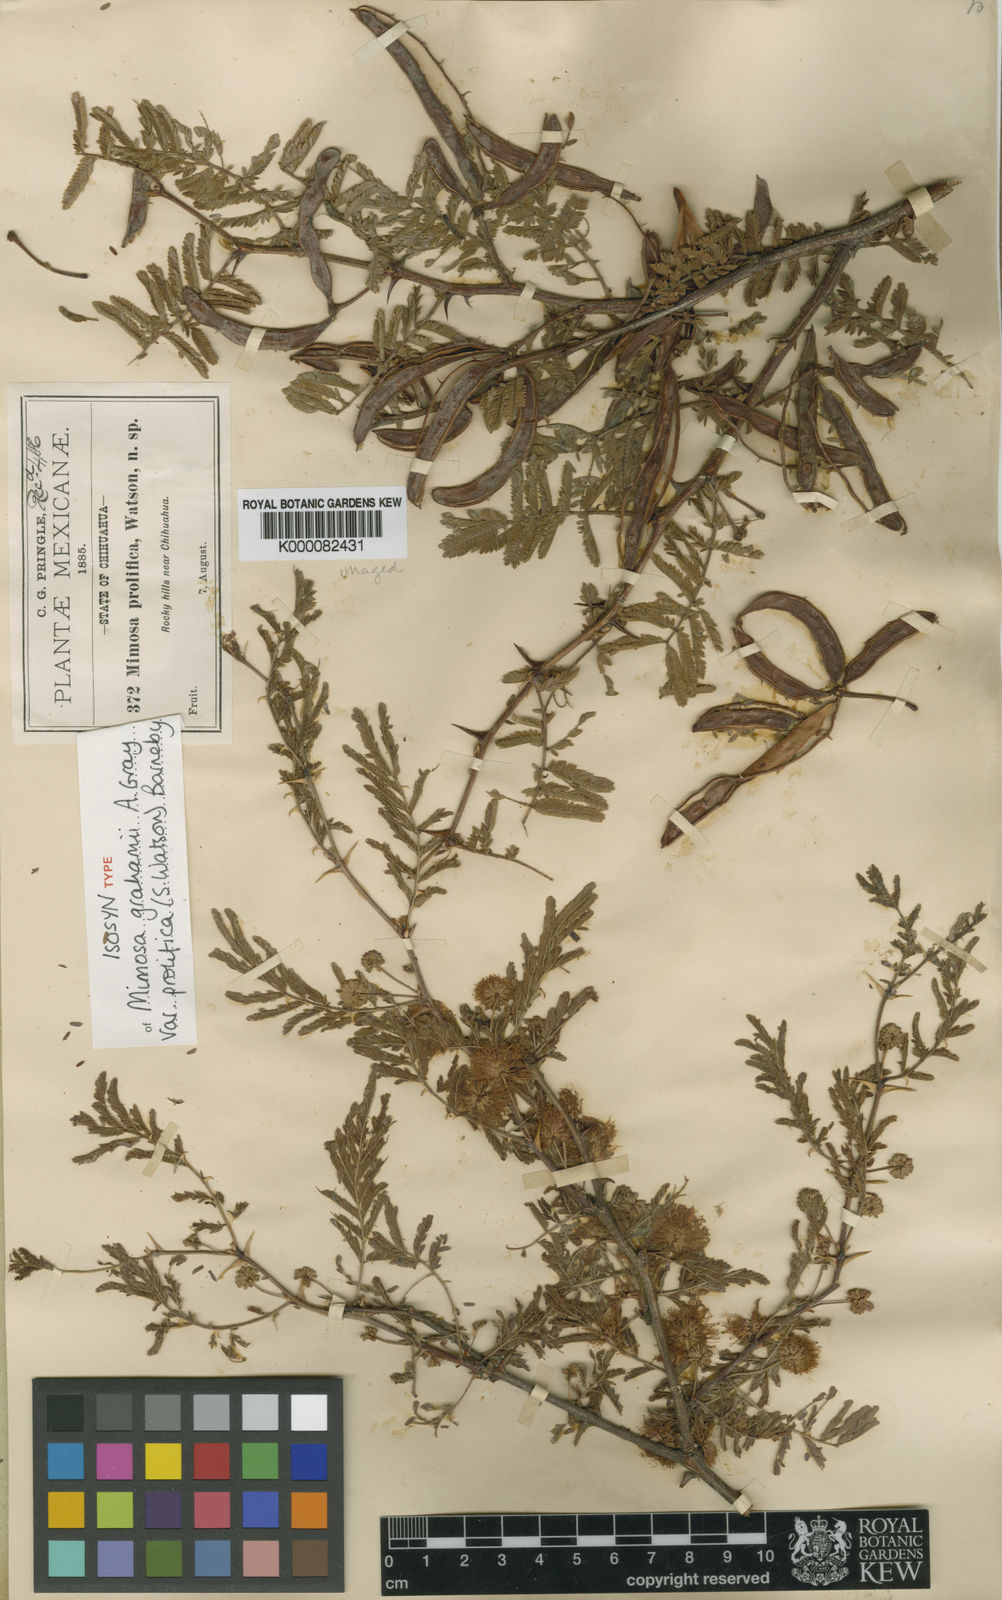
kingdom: Plantae
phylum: Tracheophyta
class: Magnoliopsida
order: Fabales
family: Fabaceae
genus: Mimosa
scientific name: Mimosa grahamii
